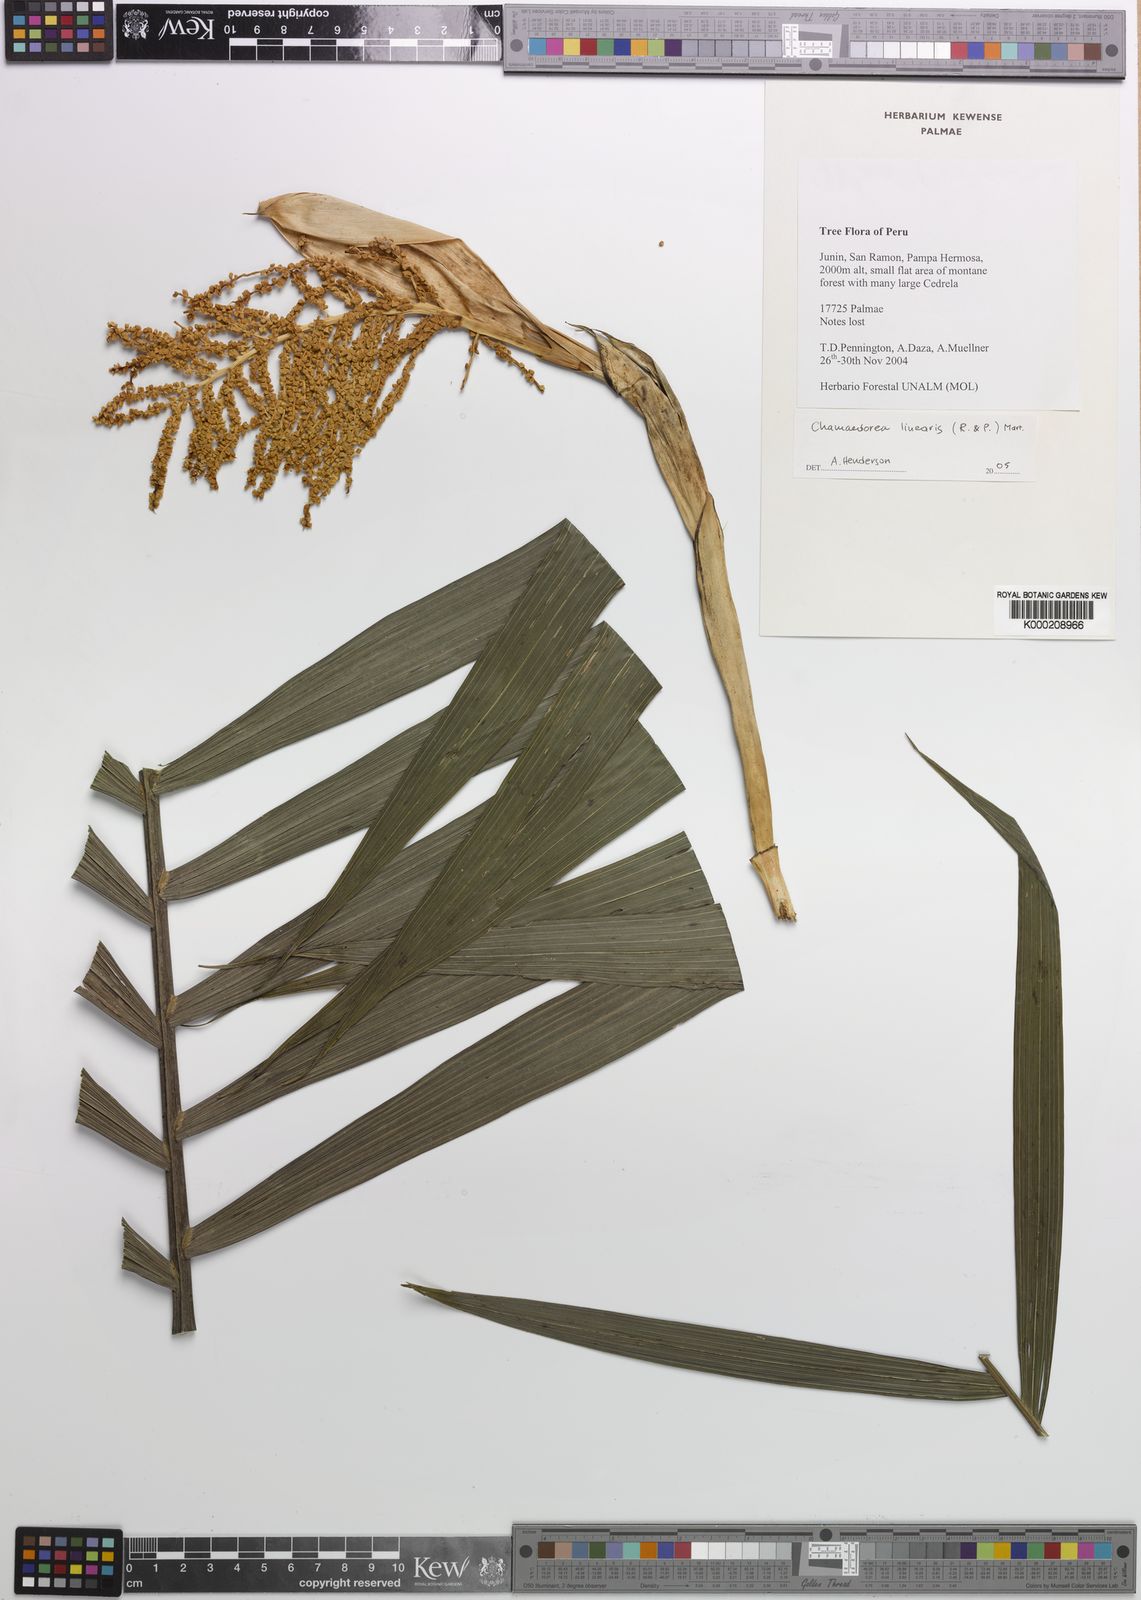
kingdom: Plantae
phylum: Tracheophyta
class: Liliopsida
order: Arecales
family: Arecaceae
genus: Chamaedorea
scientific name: Chamaedorea linearis
